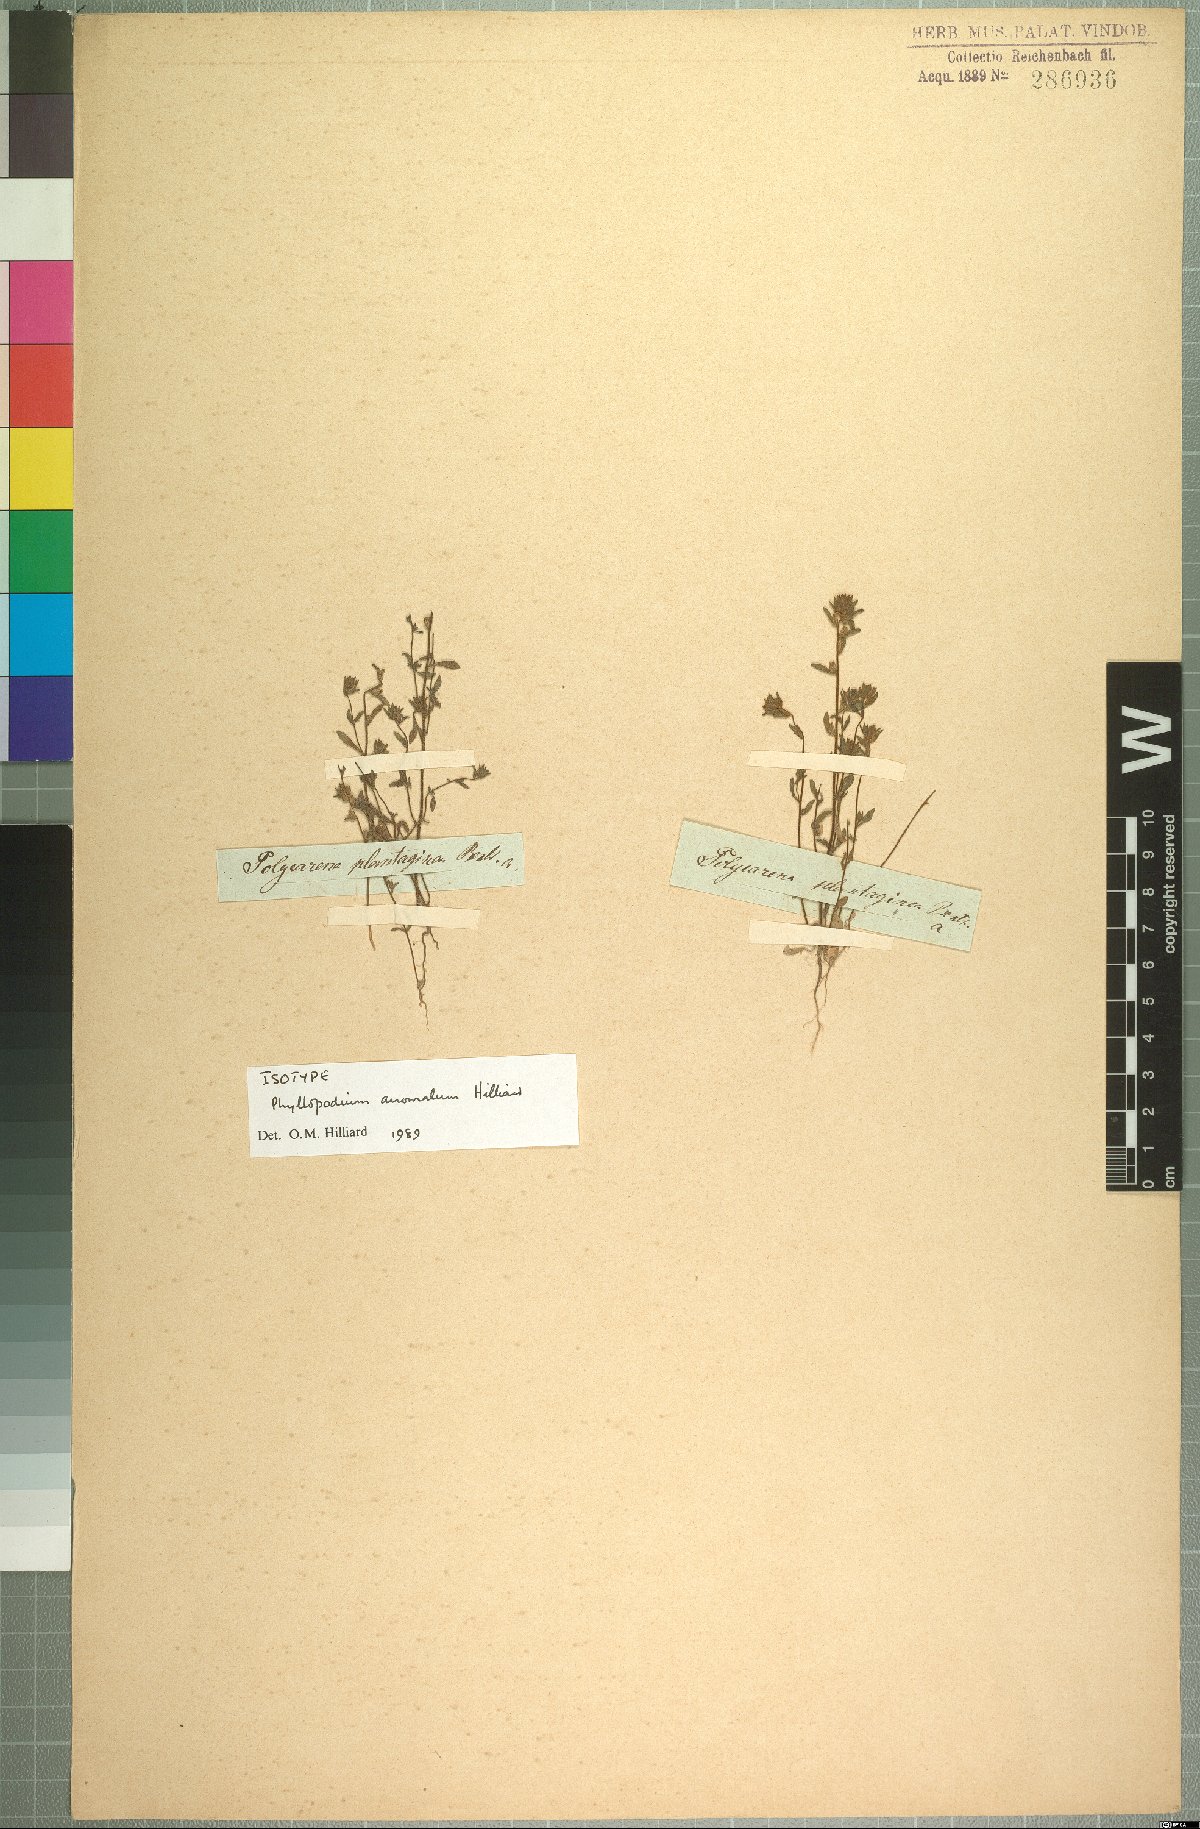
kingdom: Plantae
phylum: Tracheophyta
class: Magnoliopsida
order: Lamiales
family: Scrophulariaceae
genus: Phyllopodium
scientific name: Phyllopodium anomalum
